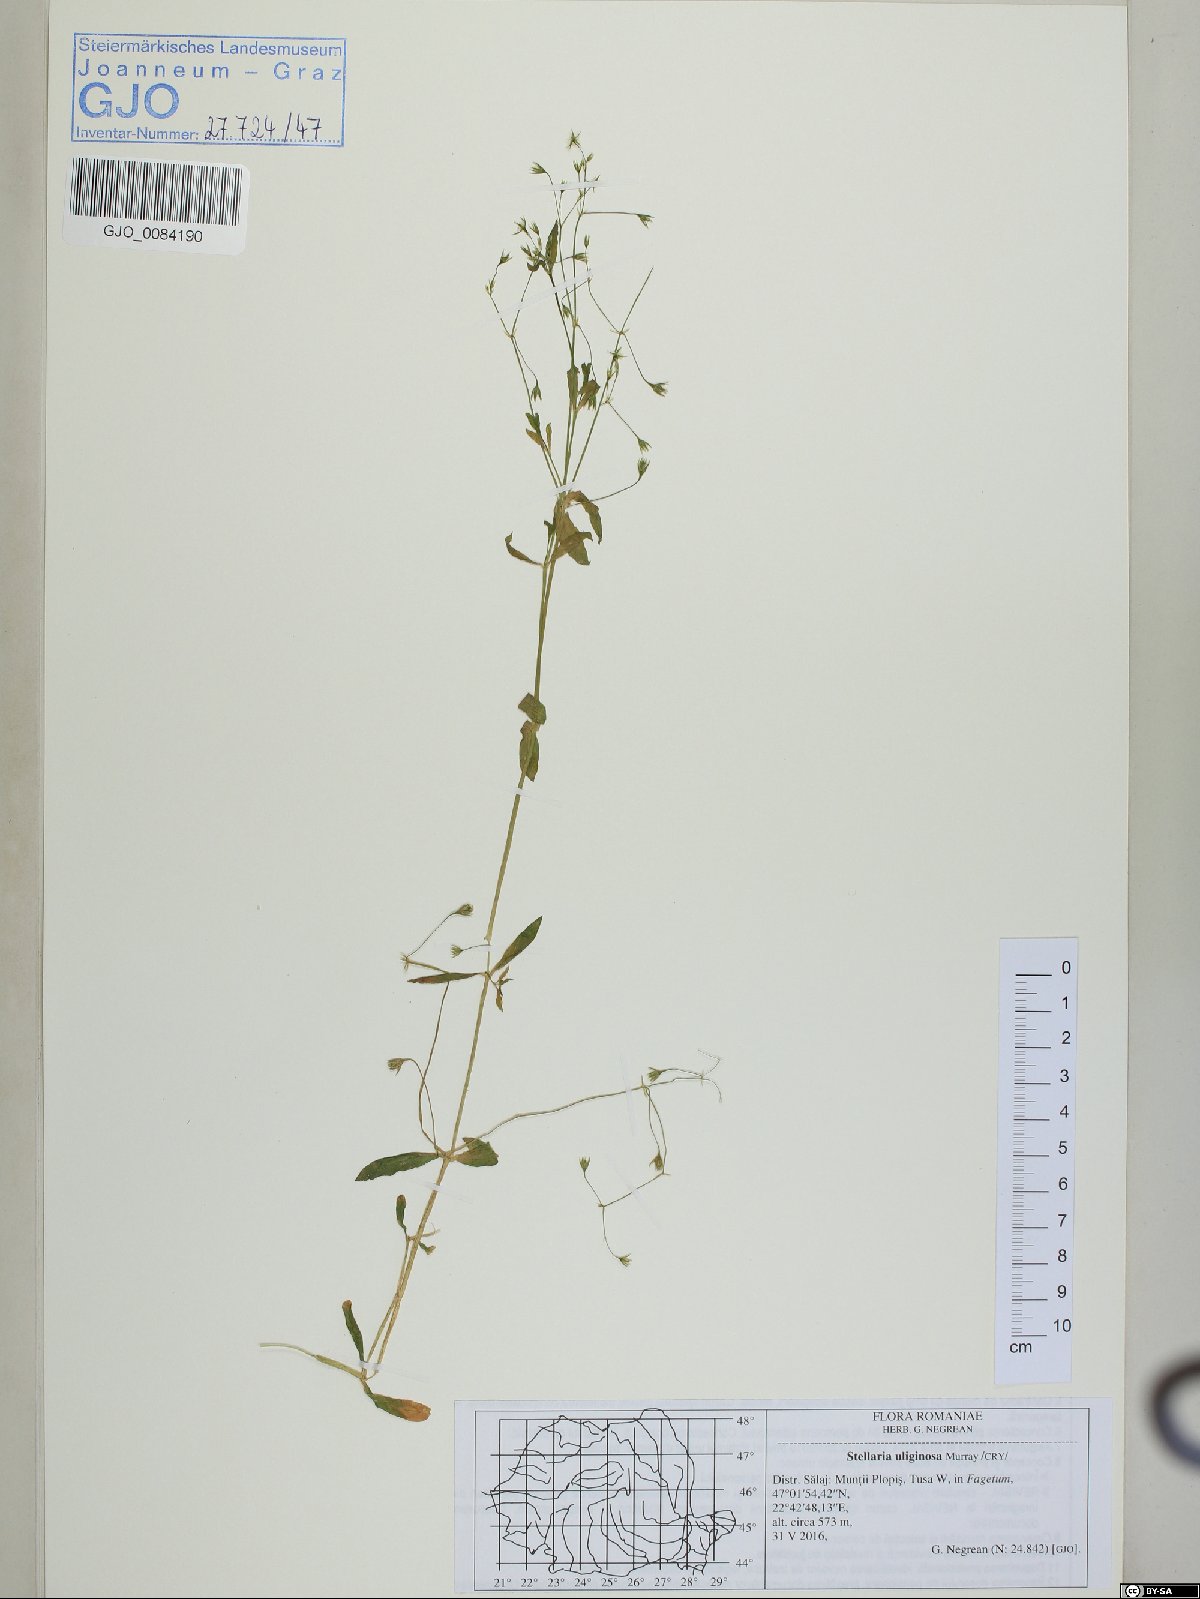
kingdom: Plantae
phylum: Tracheophyta
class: Magnoliopsida
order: Caryophyllales
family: Caryophyllaceae
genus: Stellaria
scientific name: Stellaria alsine
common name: Bog stitchwort
